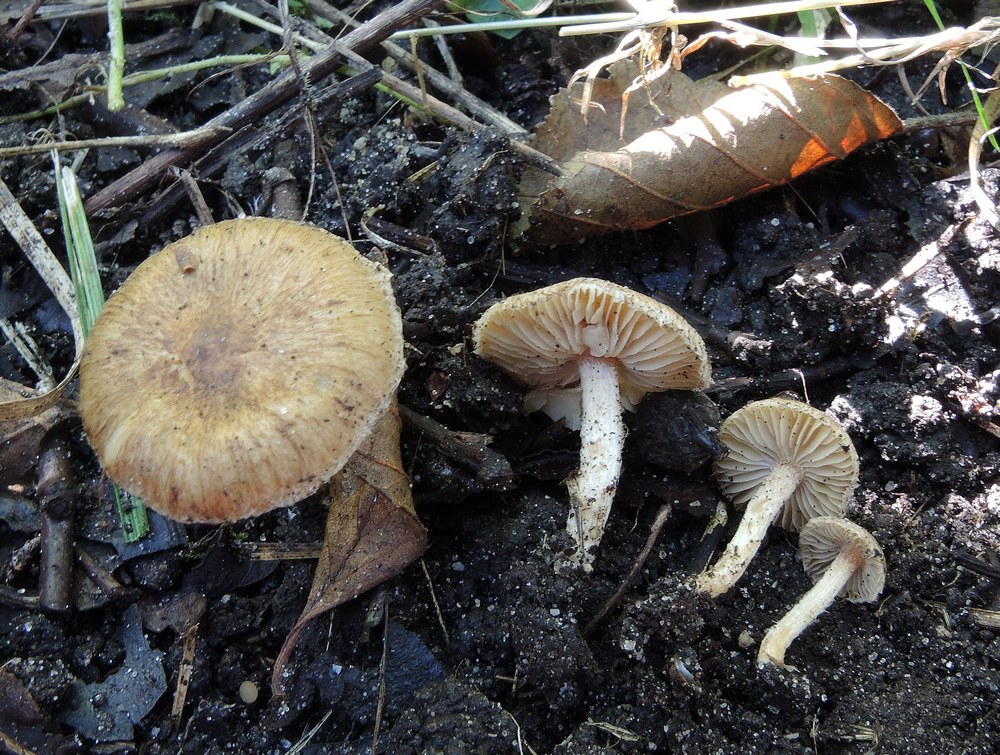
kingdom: Fungi
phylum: Basidiomycota
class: Agaricomycetes
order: Agaricales
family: Inocybaceae
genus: Inocybe
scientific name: Inocybe
